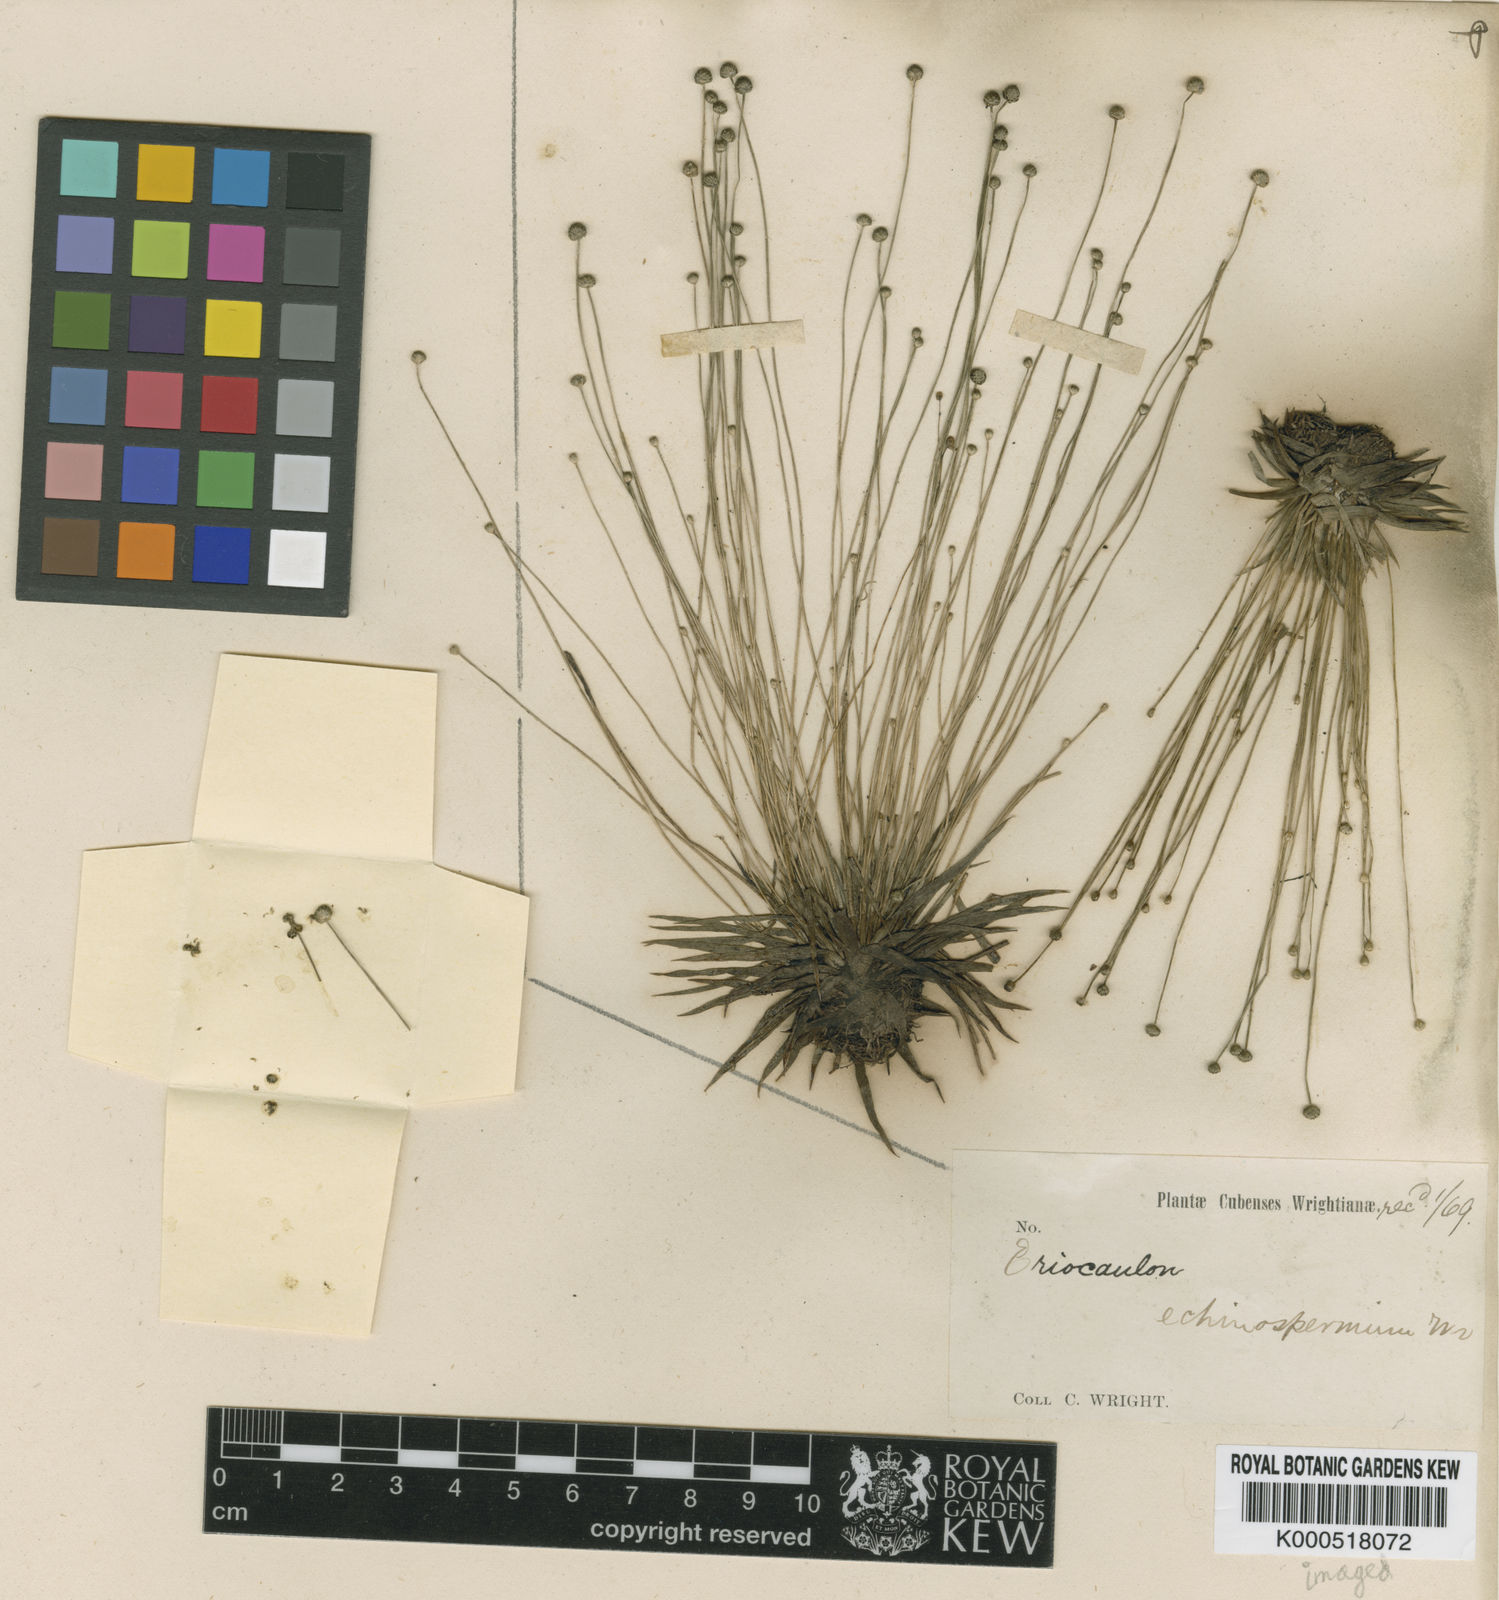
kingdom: Plantae
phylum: Tracheophyta
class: Liliopsida
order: Poales
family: Eriocaulaceae
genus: Eriocaulon
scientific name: Eriocaulon echinospermum
